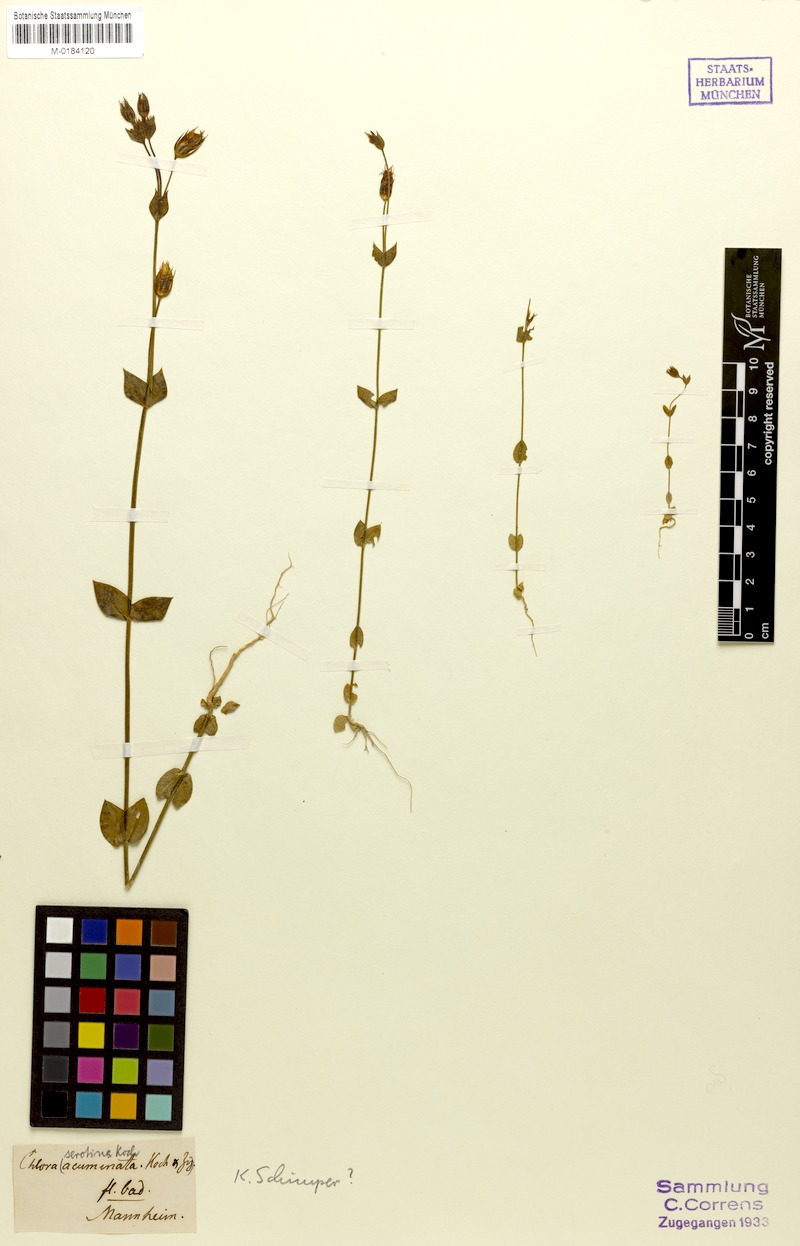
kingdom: Plantae
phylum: Tracheophyta
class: Magnoliopsida
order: Gentianales
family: Gentianaceae
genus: Blackstonia
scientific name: Blackstonia acuminata
